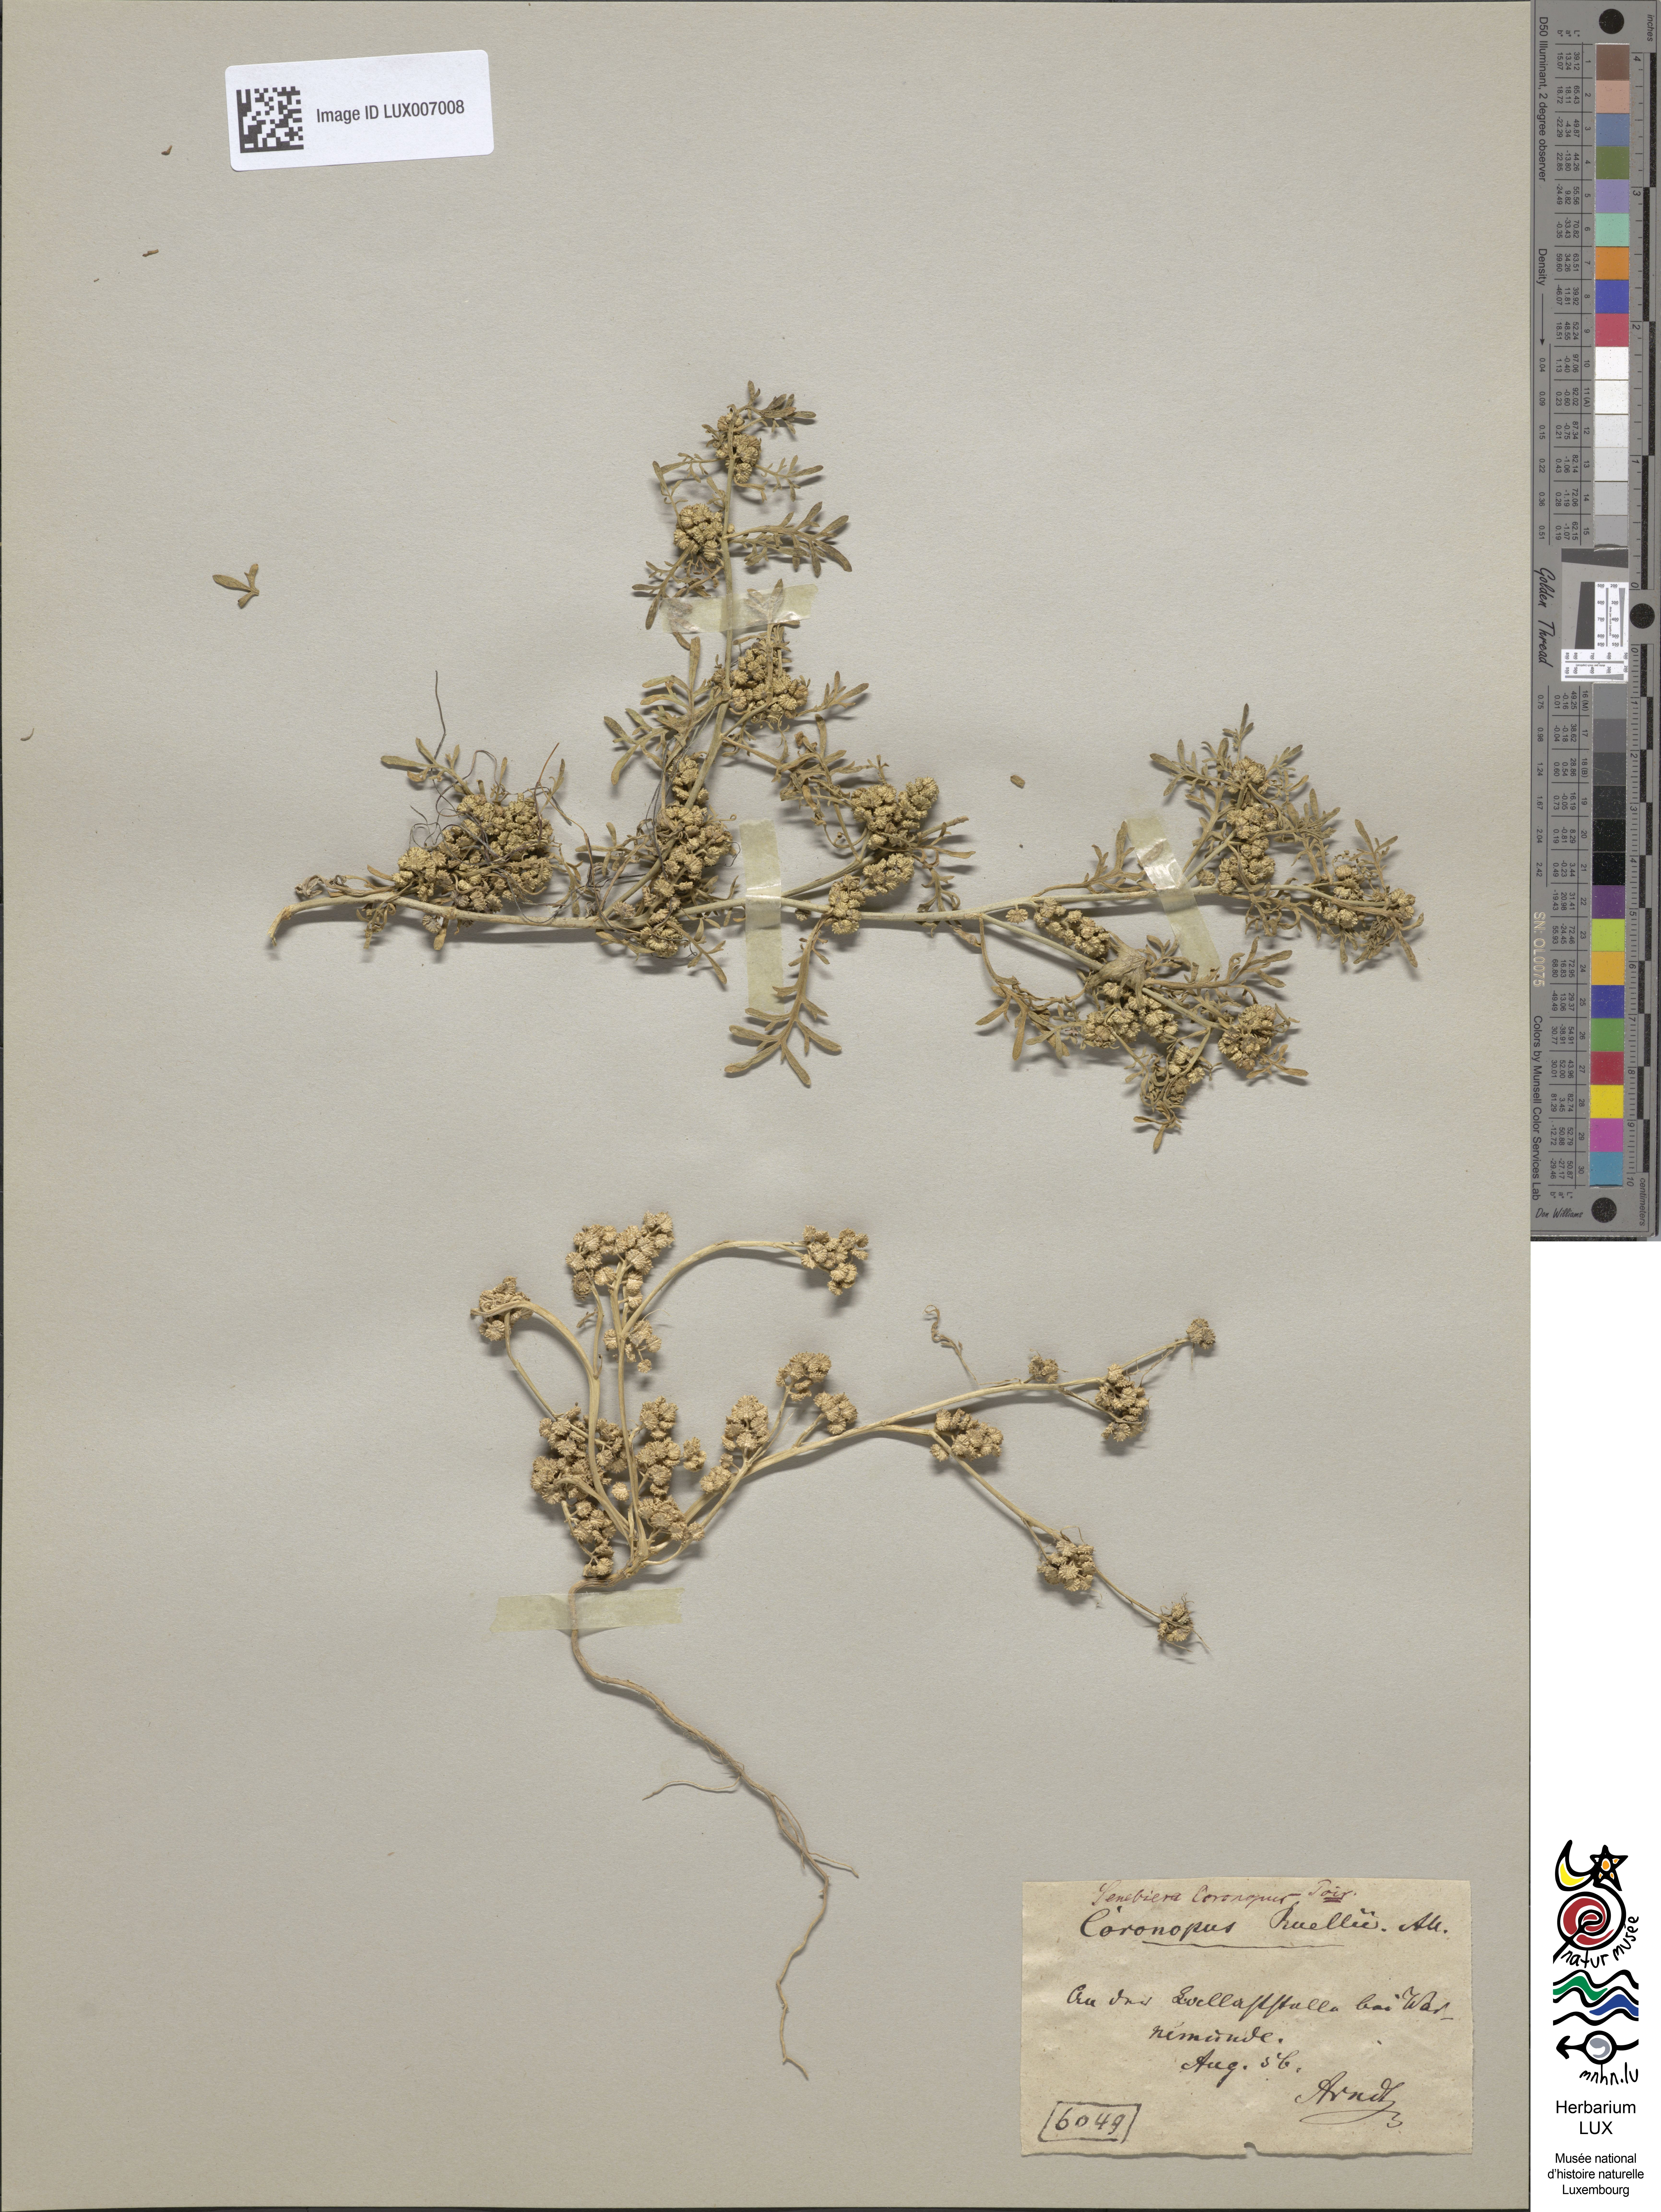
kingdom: Plantae
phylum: Tracheophyta
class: Magnoliopsida
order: Brassicales
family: Brassicaceae
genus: Lepidium
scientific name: Lepidium coronopus
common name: Greater swinecress
